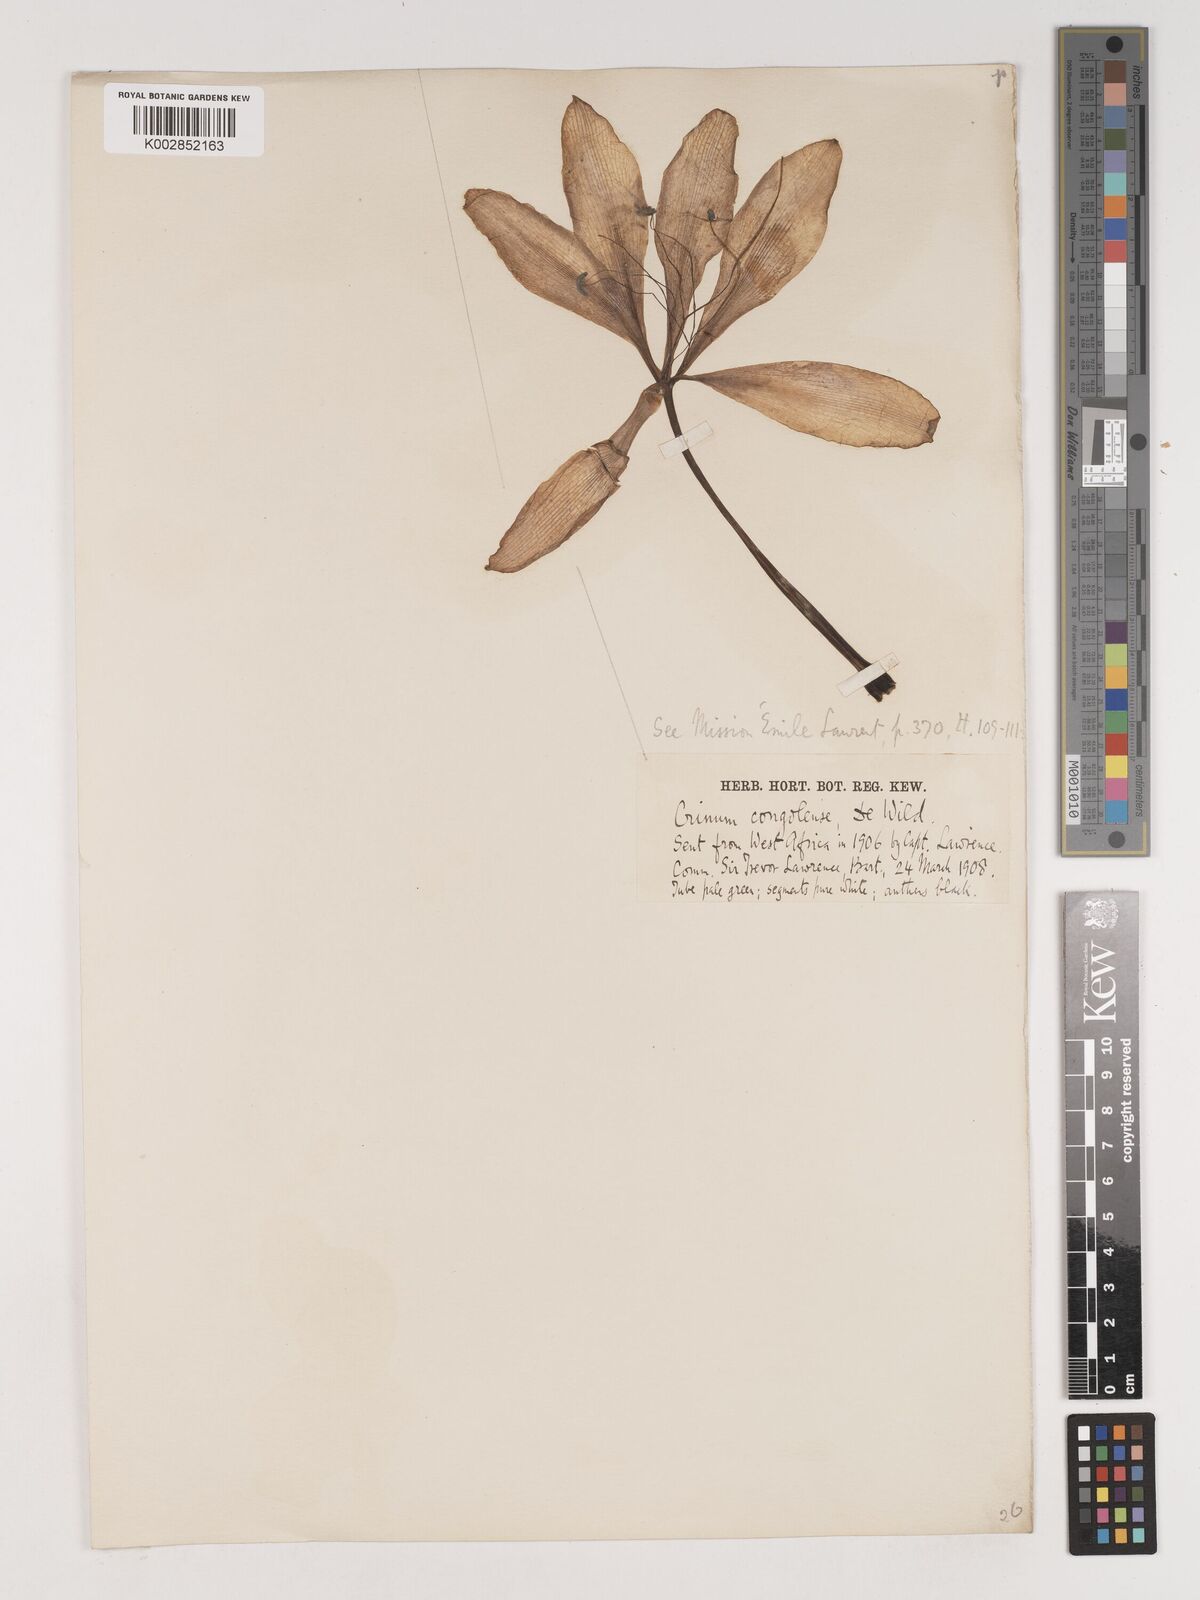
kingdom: Plantae
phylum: Tracheophyta
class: Liliopsida
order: Asparagales
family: Amaryllidaceae
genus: Crinum
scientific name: Crinum jagus
